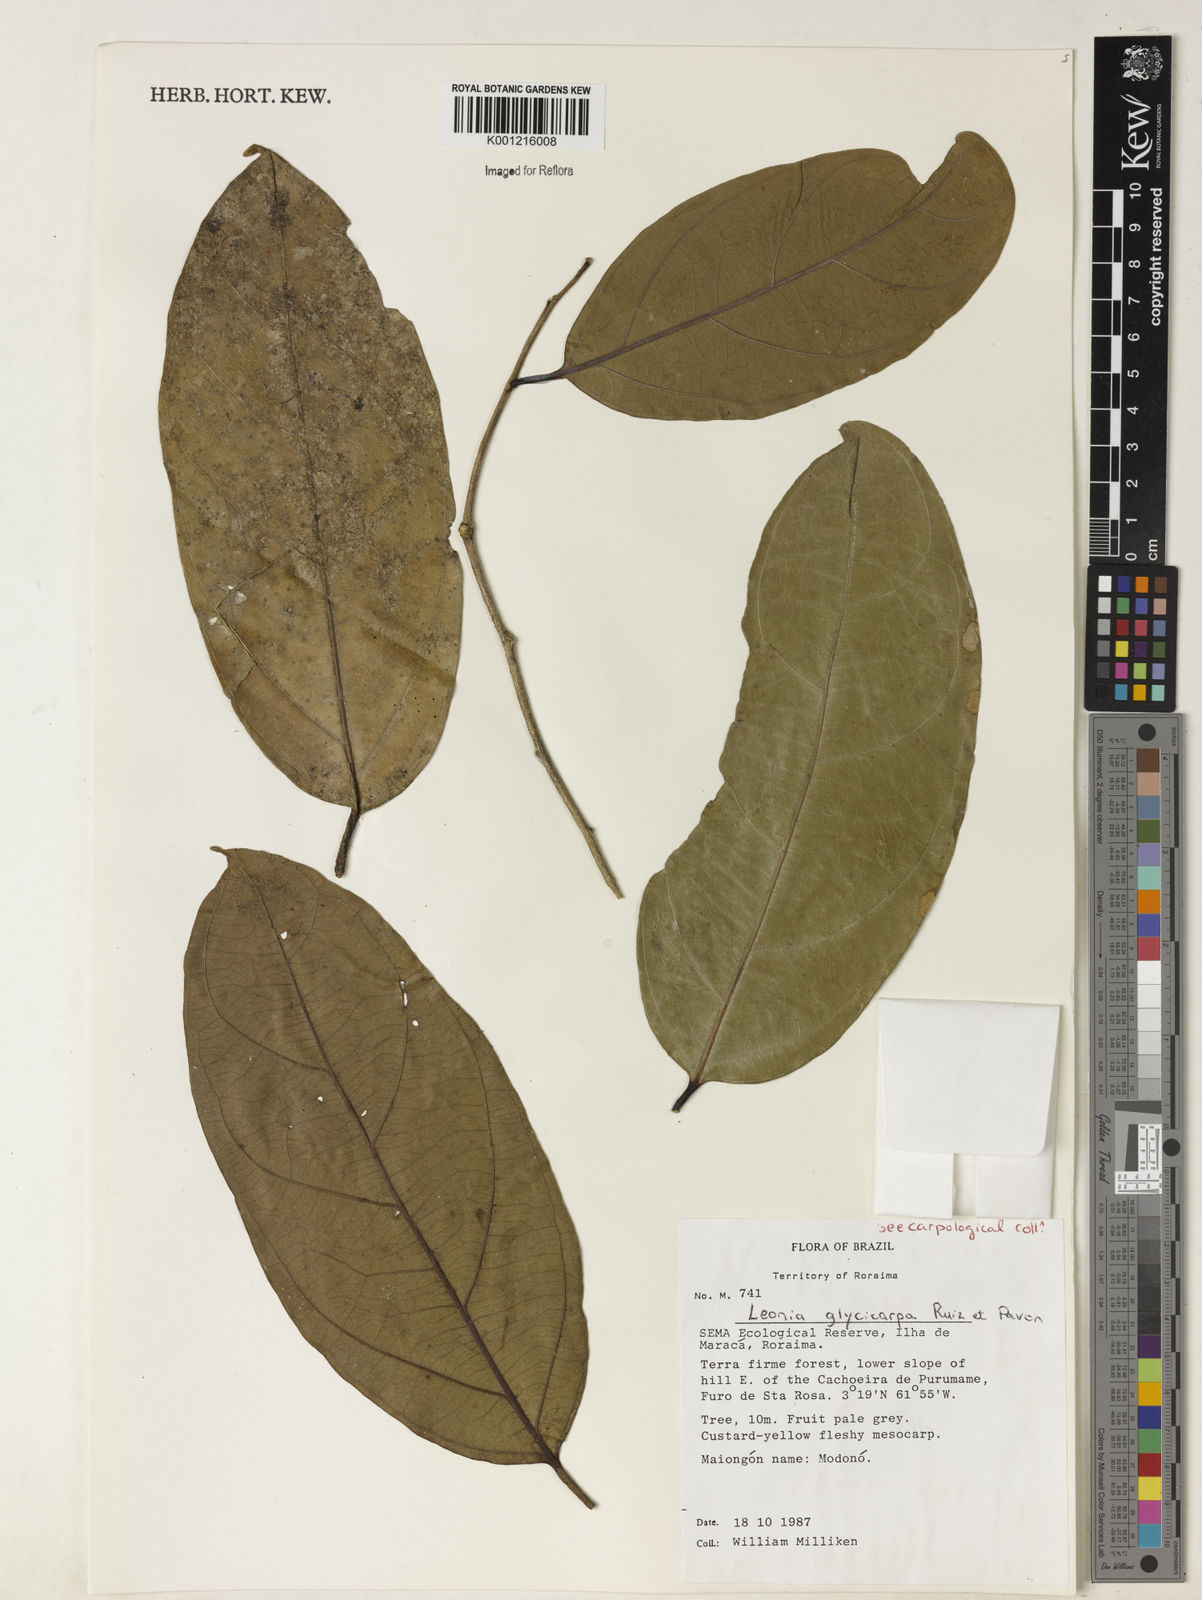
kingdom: Plantae
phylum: Tracheophyta
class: Magnoliopsida
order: Malpighiales
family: Violaceae
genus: Leonia
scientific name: Leonia glycycarpa
